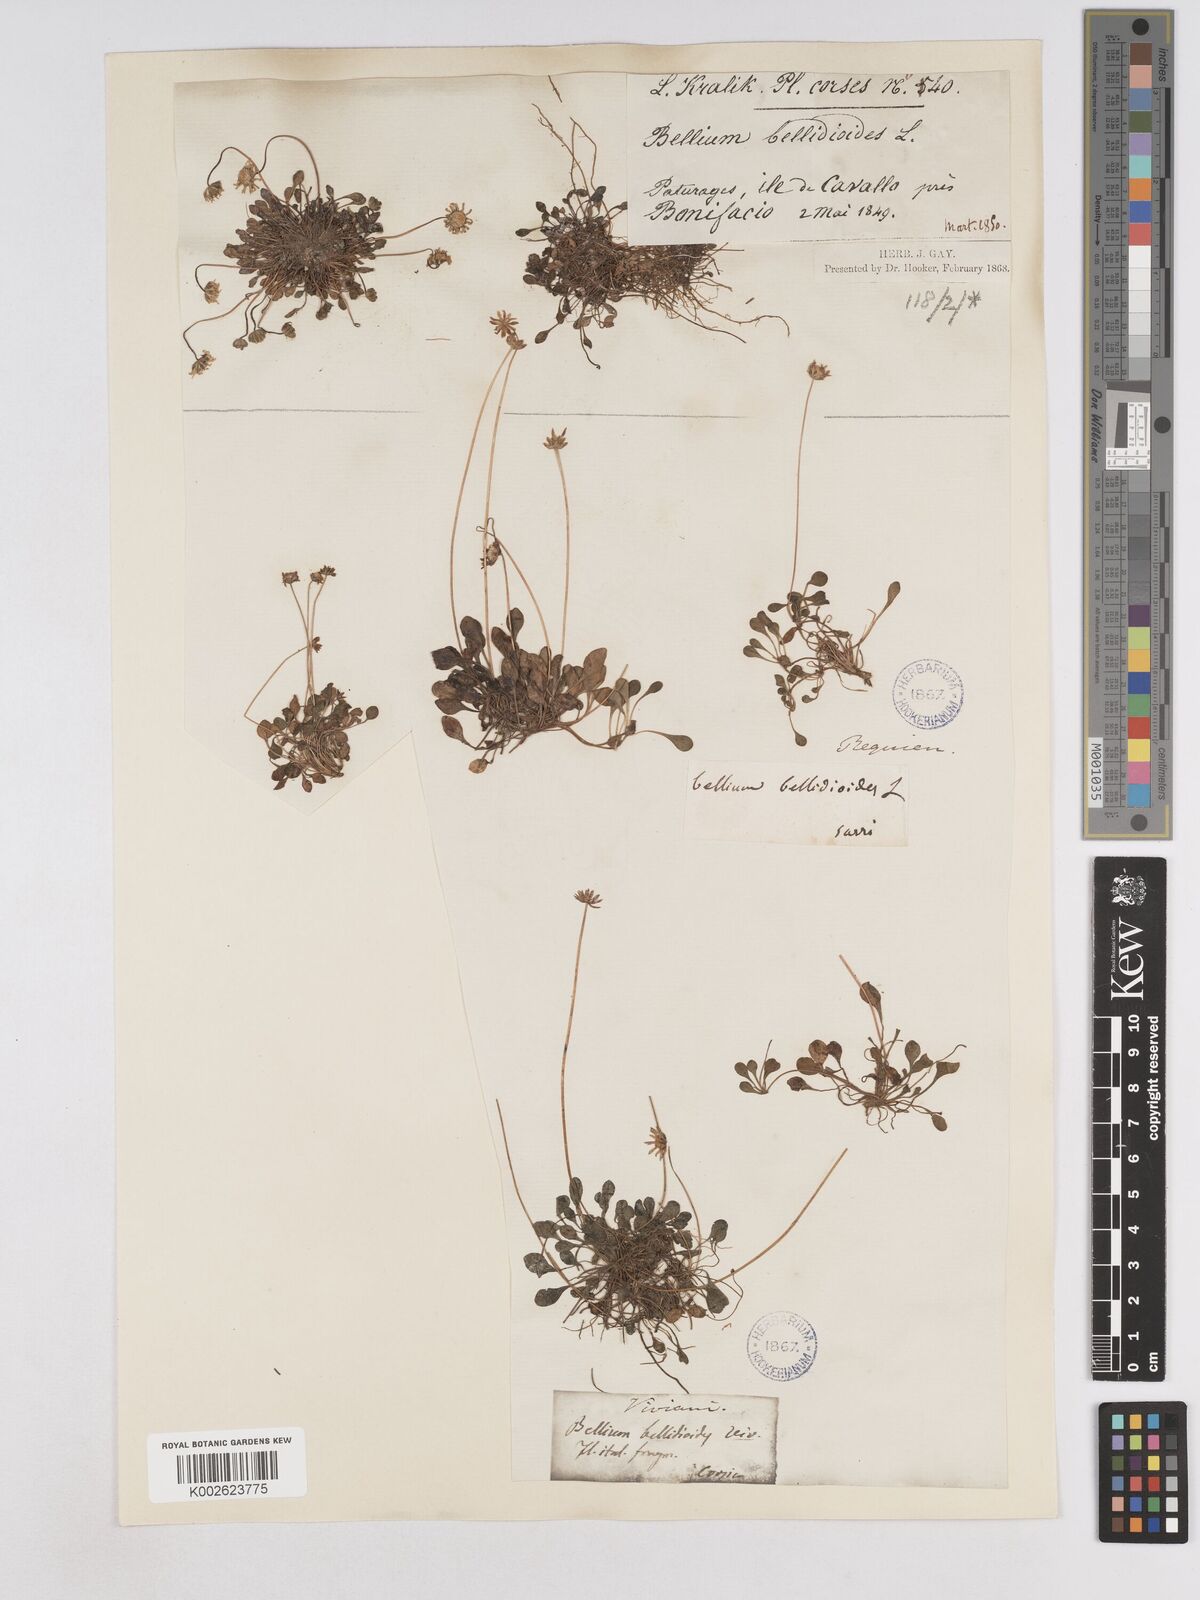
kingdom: Plantae
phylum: Tracheophyta
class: Magnoliopsida
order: Asterales
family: Asteraceae
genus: Bellium
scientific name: Bellium bellidioides
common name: False daisy
